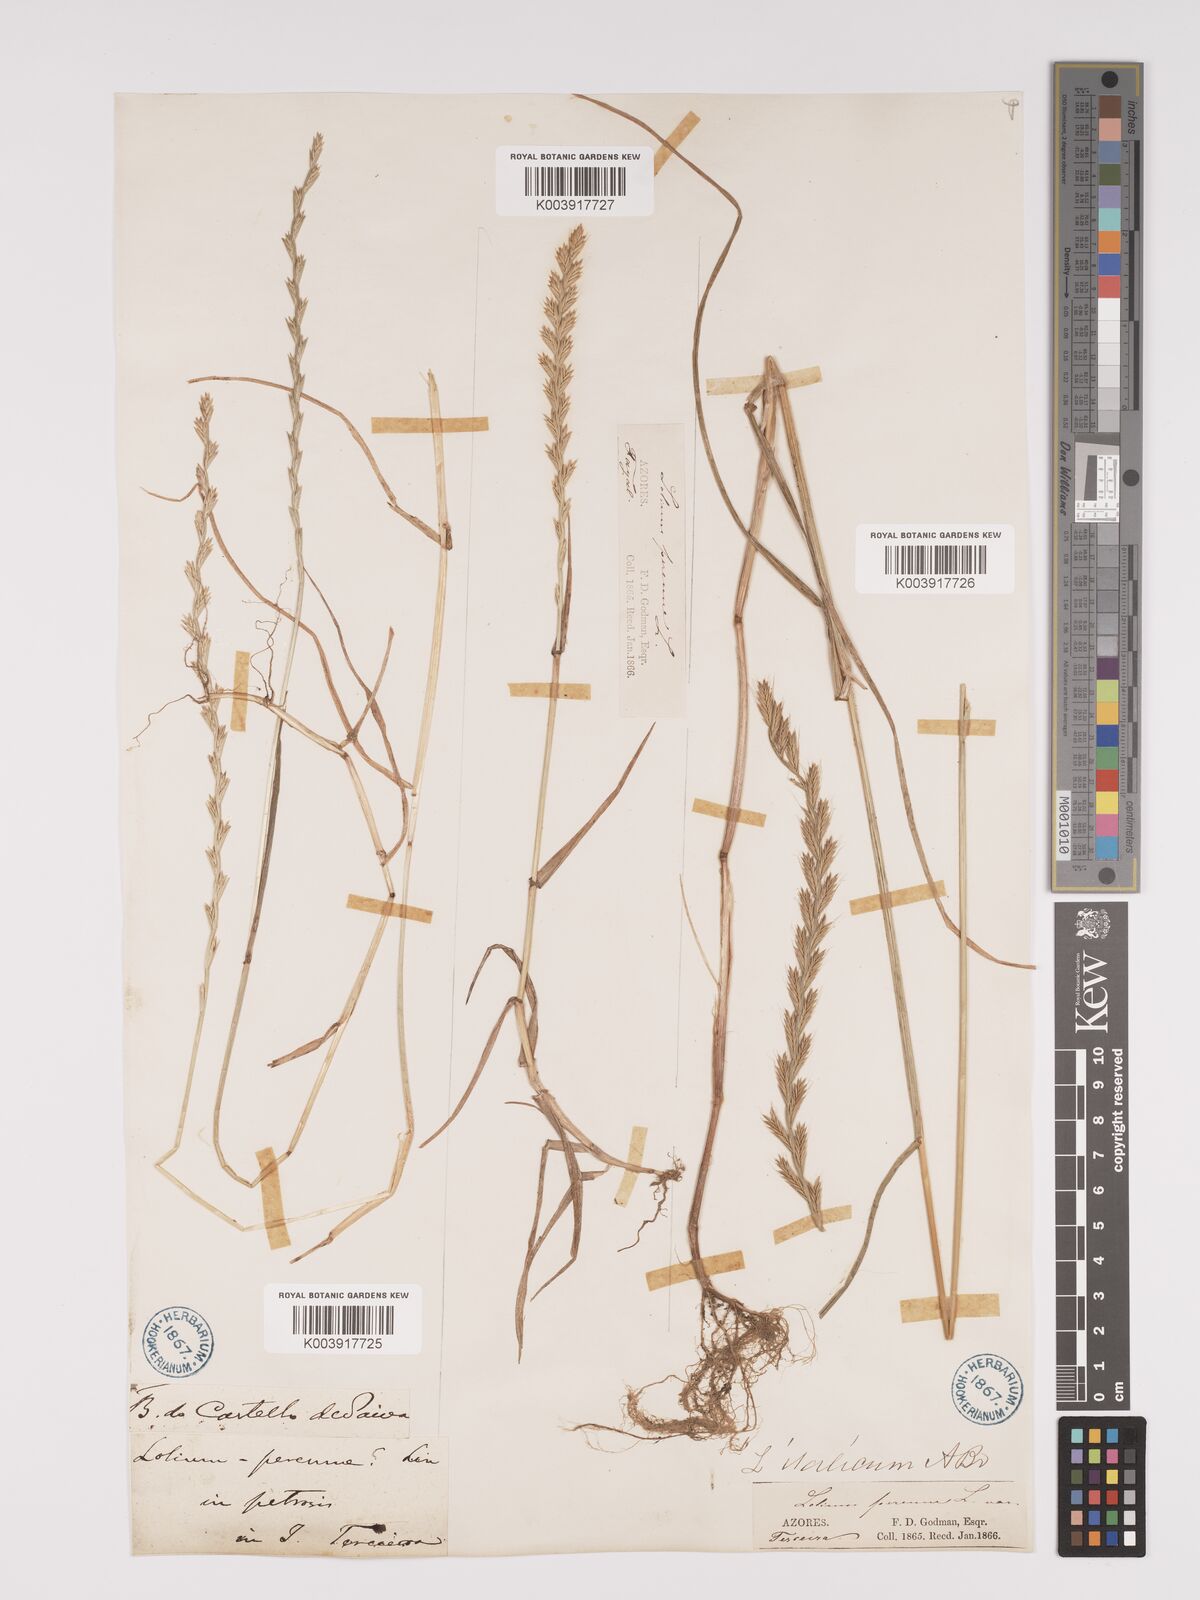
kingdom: Plantae
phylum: Tracheophyta
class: Liliopsida
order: Poales
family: Poaceae
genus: Lolium
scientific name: Lolium perenne
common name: Perennial ryegrass
